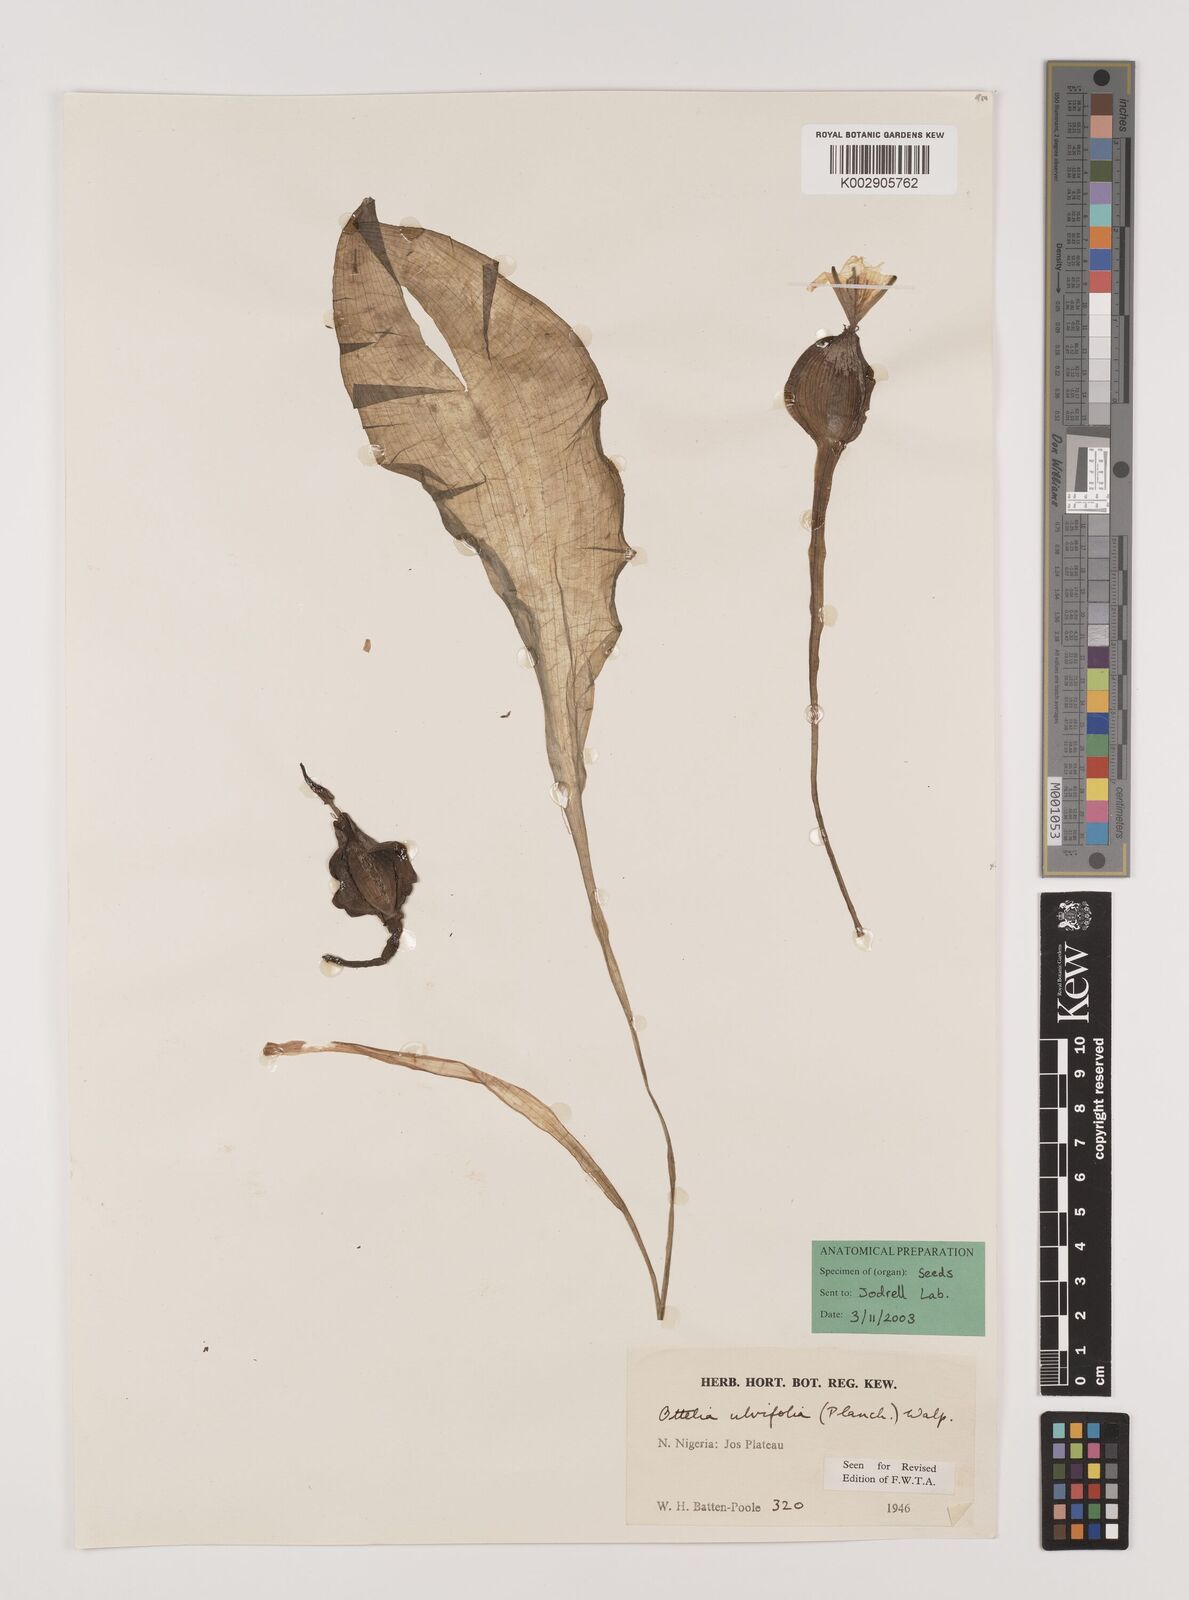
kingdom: Plantae
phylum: Tracheophyta
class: Liliopsida
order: Alismatales
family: Hydrocharitaceae
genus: Ottelia
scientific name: Ottelia ulvifolia
